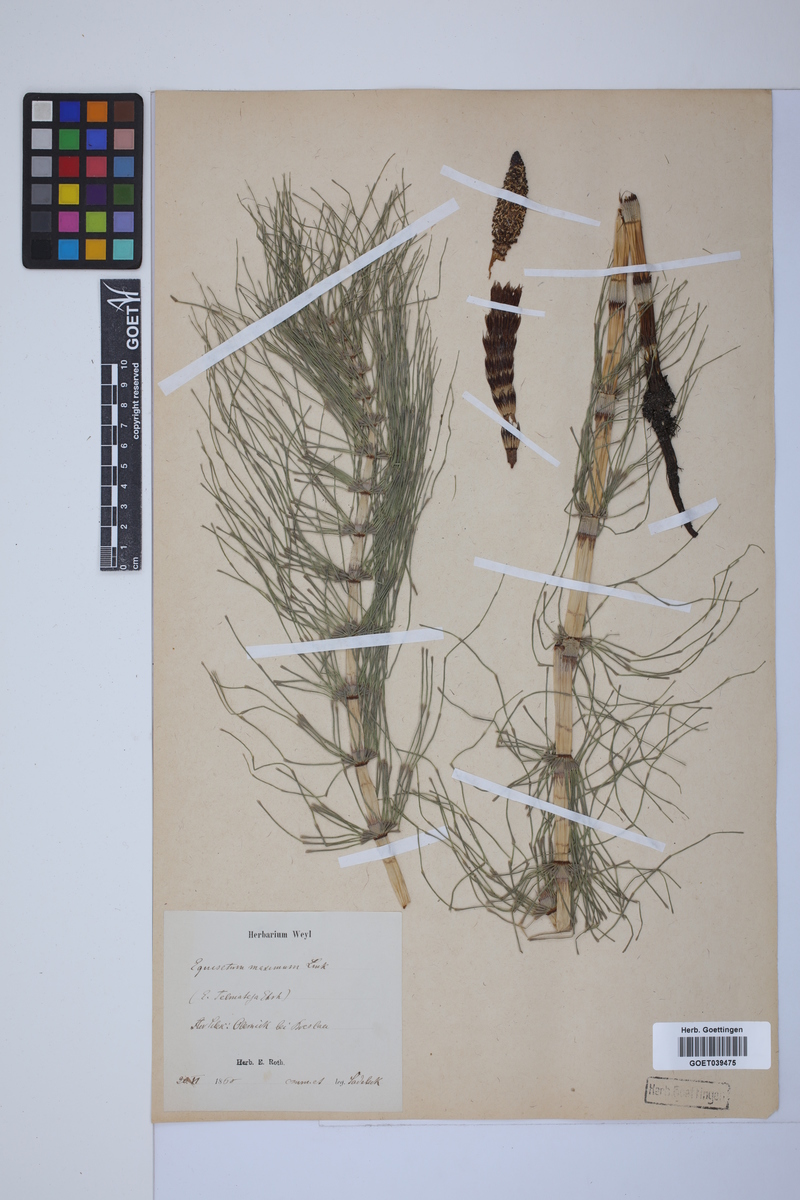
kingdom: Plantae
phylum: Tracheophyta
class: Polypodiopsida
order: Equisetales
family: Equisetaceae
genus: Equisetum
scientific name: Equisetum telmateia
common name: Great horsetail
